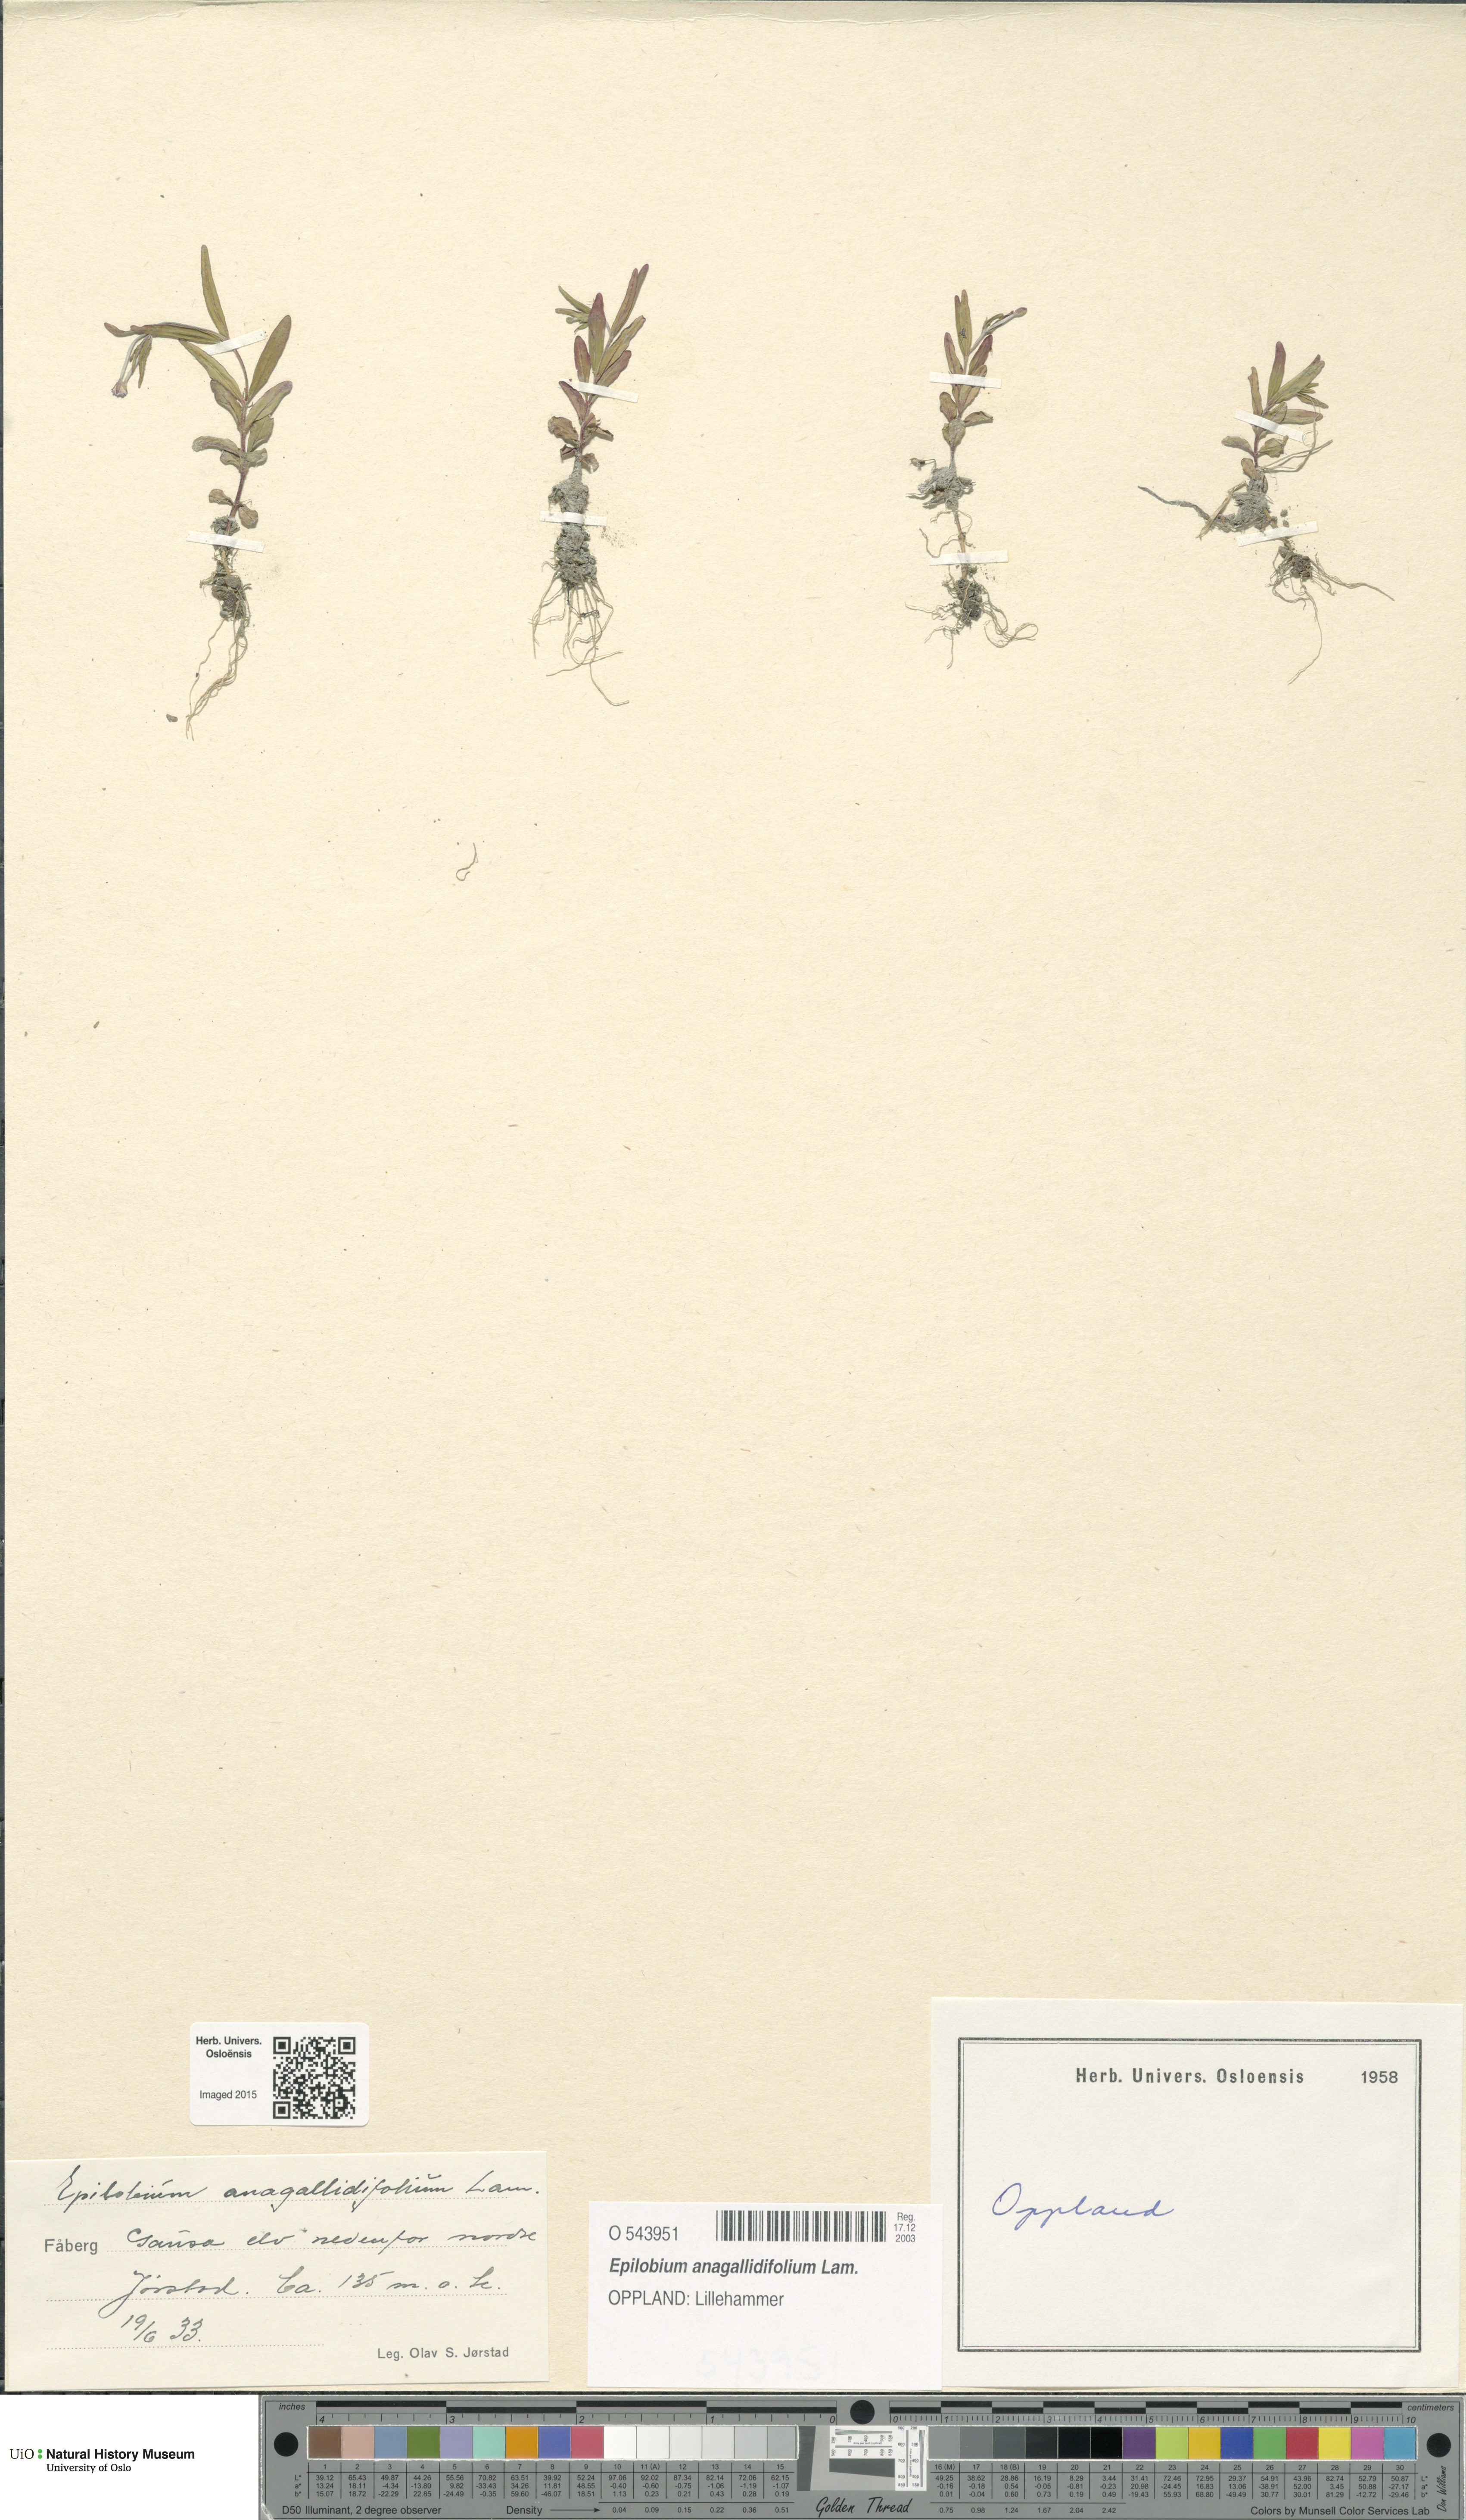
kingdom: Plantae
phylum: Tracheophyta
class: Magnoliopsida
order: Myrtales
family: Onagraceae
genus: Epilobium
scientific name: Epilobium anagallidifolium
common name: Alpine willowherb
